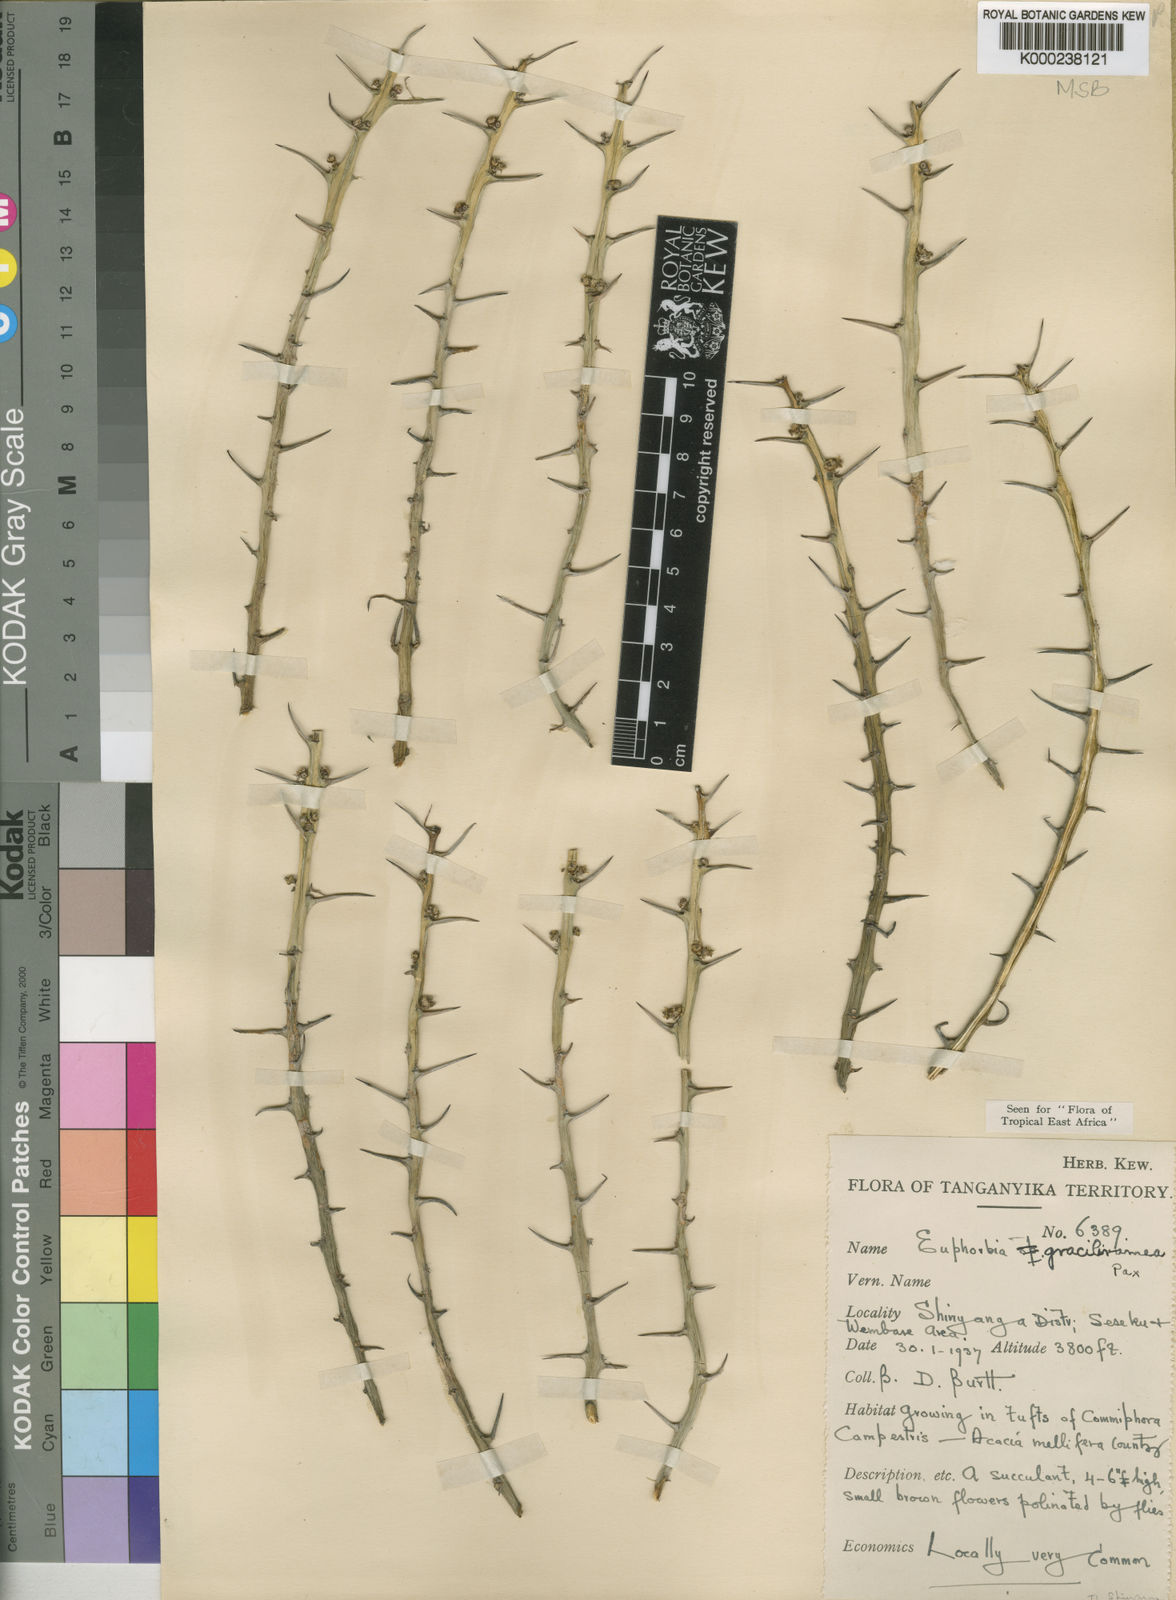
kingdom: Plantae
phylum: Tracheophyta
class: Magnoliopsida
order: Malpighiales
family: Euphorbiaceae
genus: Euphorbia
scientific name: Euphorbia graciliramea
